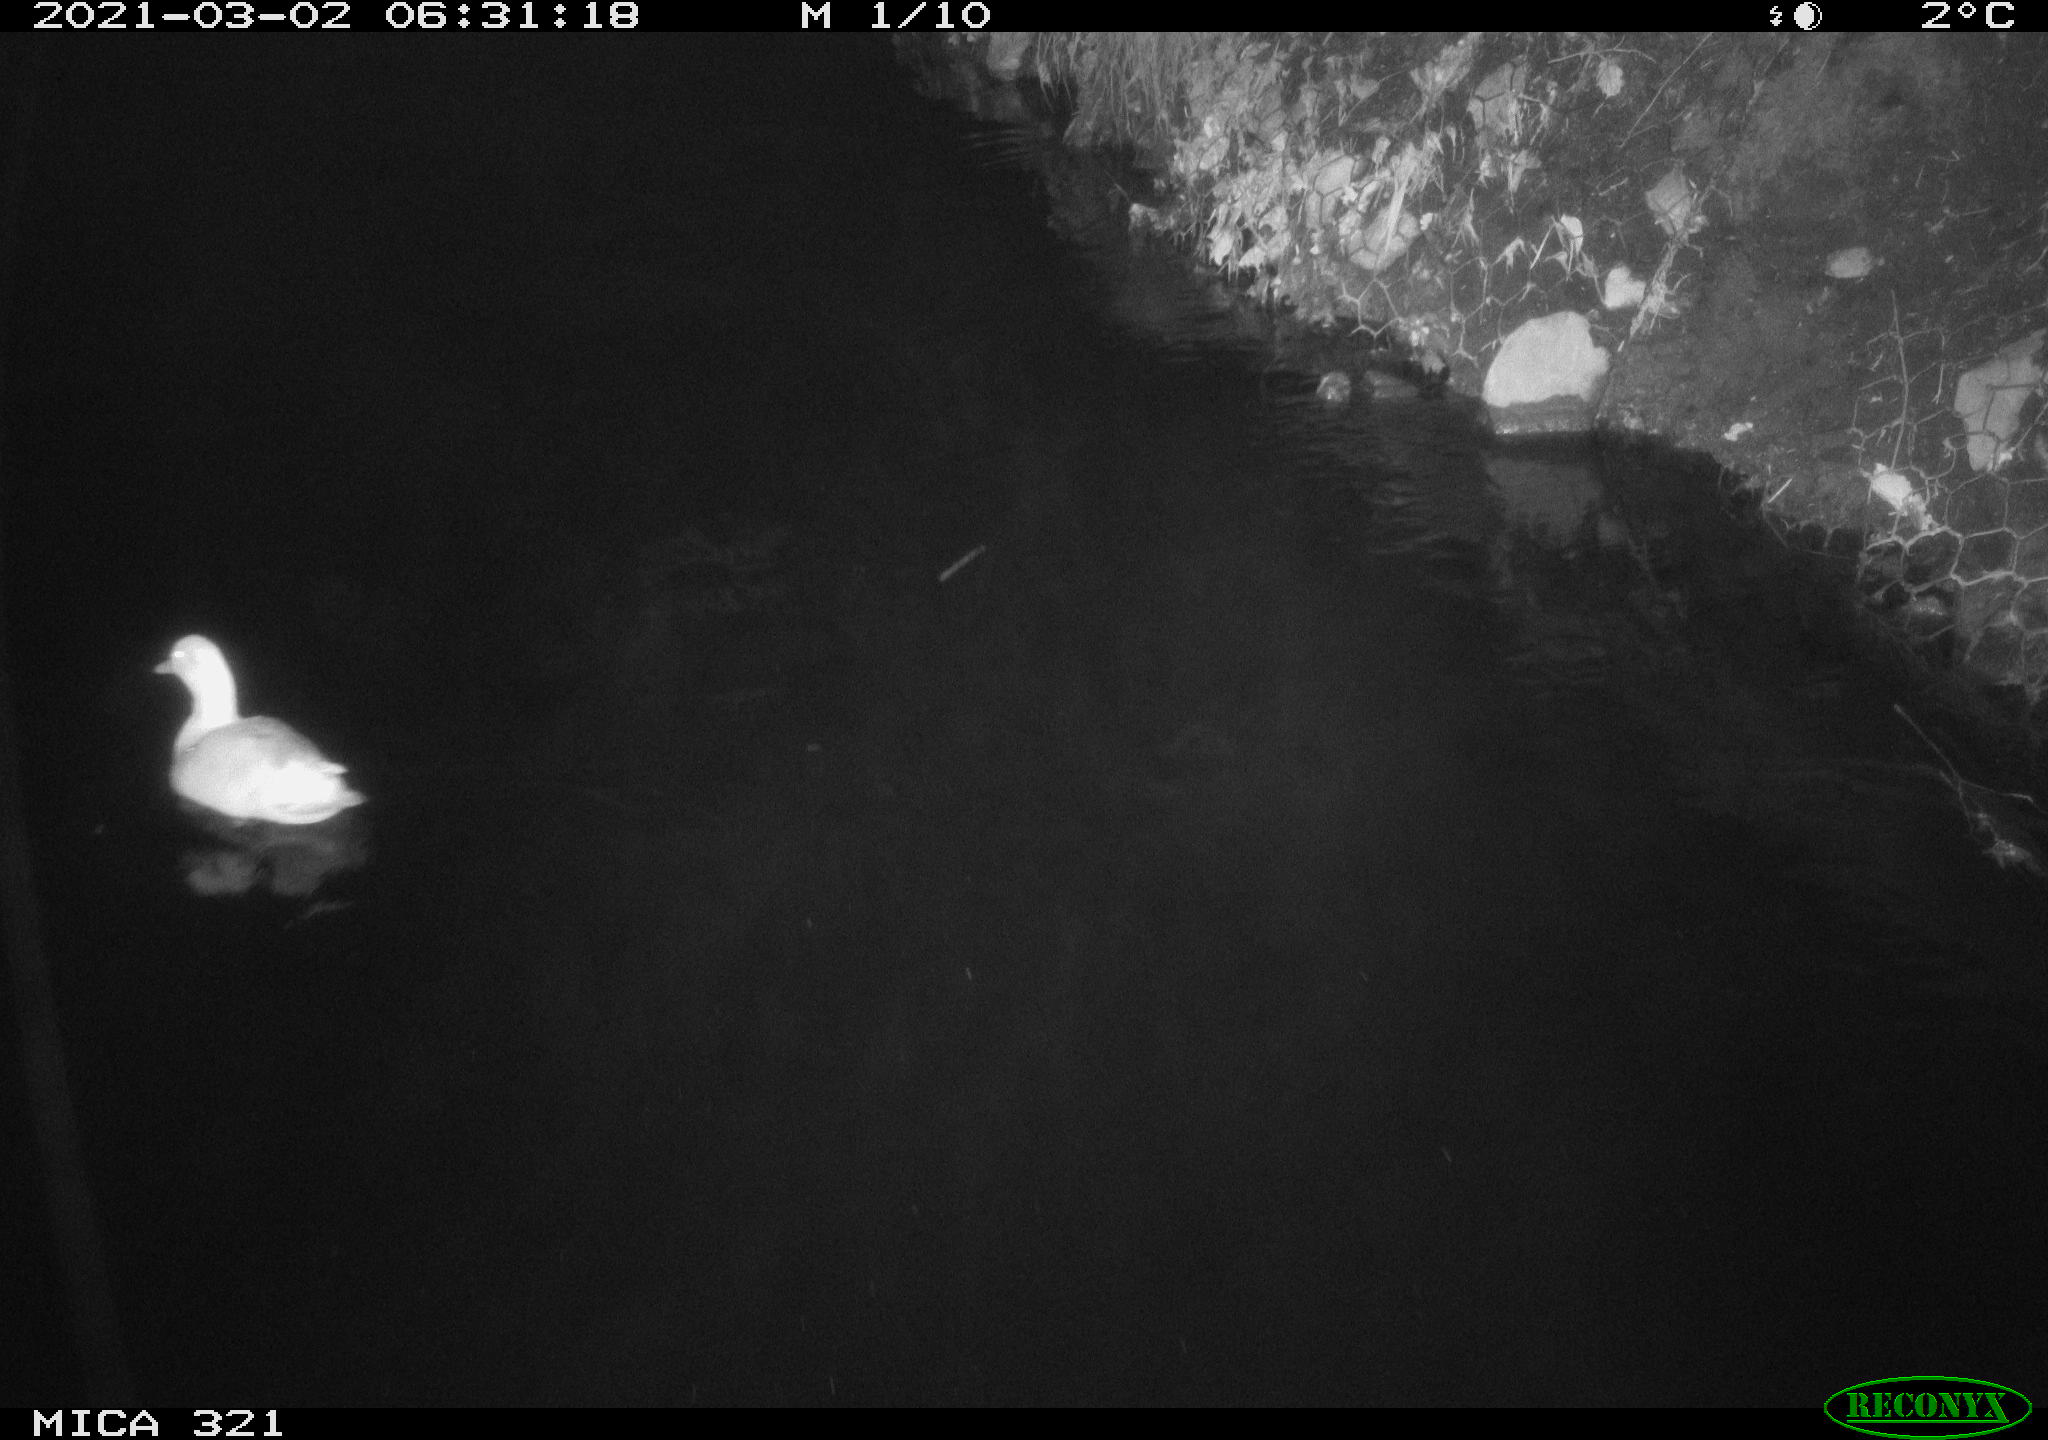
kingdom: Animalia
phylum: Chordata
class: Aves
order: Anseriformes
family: Anatidae
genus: Alopochen
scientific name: Alopochen aegyptiaca
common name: Egyptian goose
